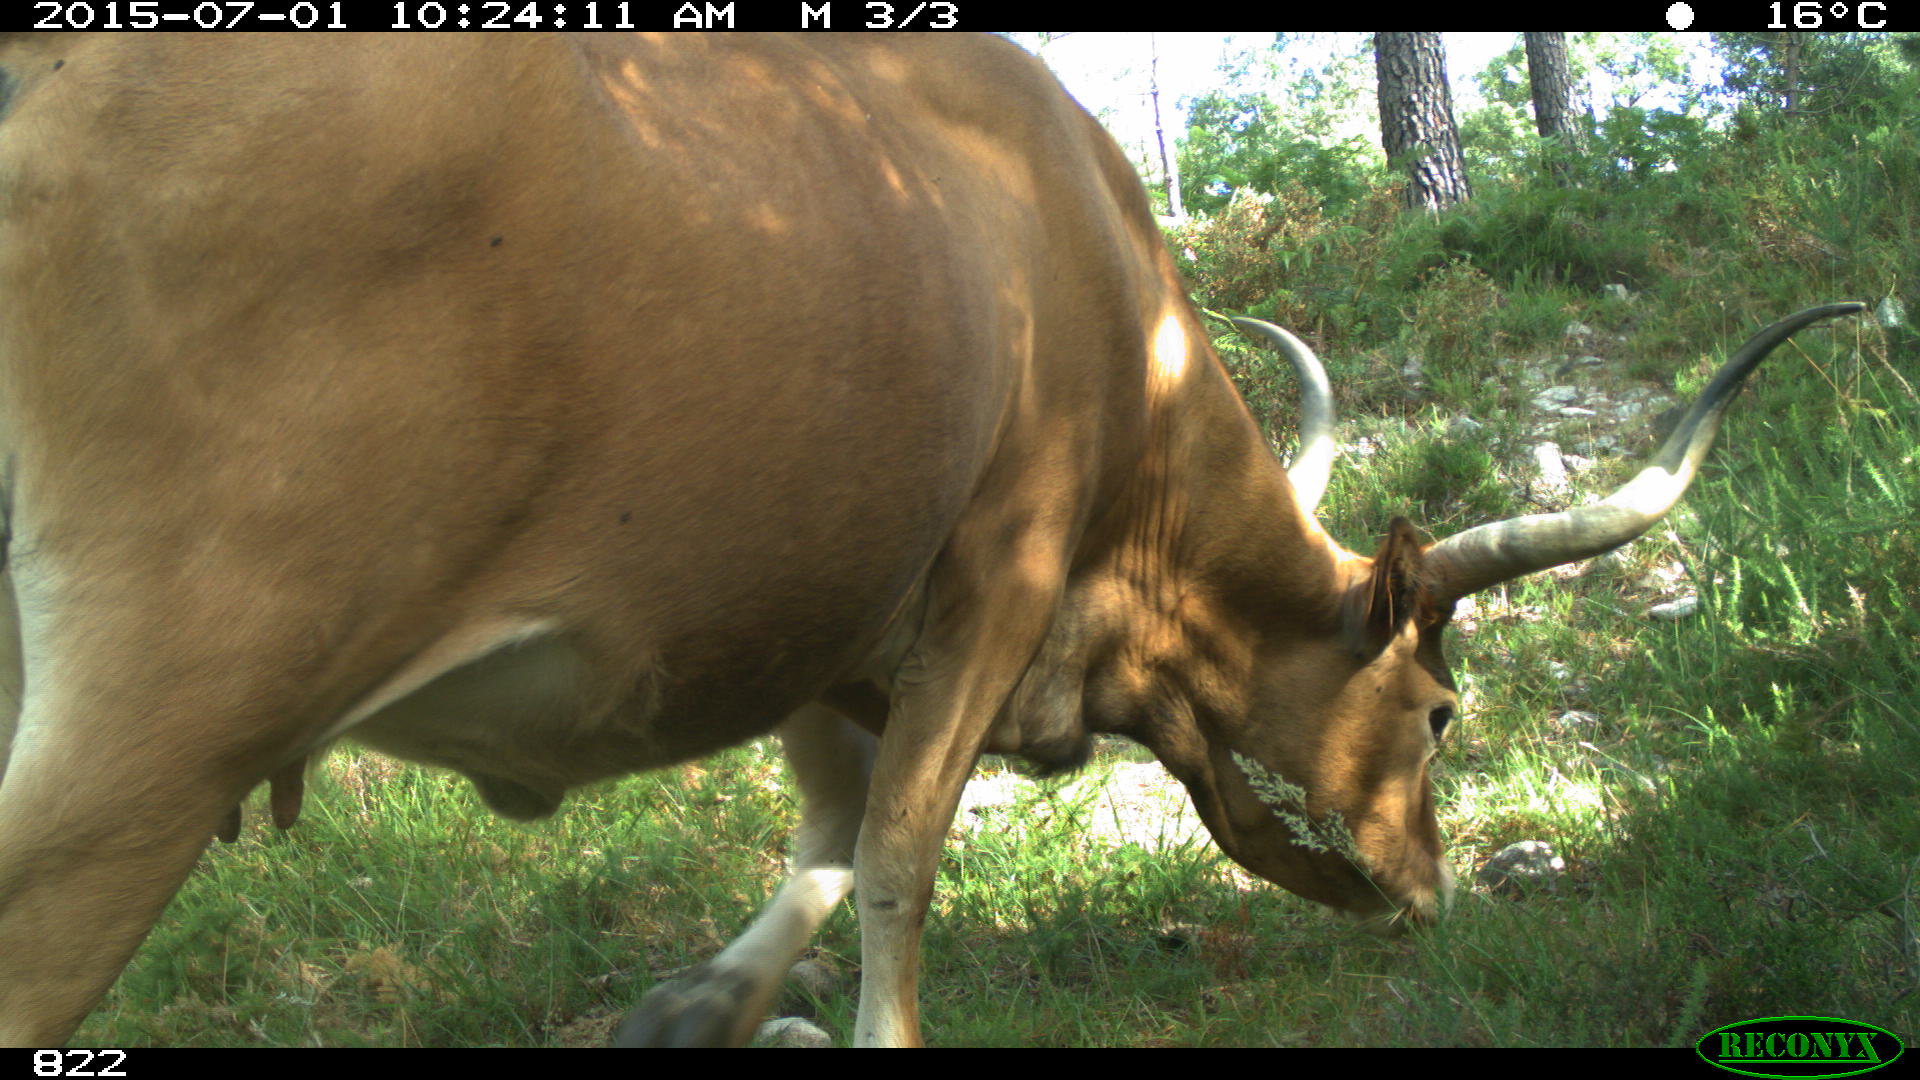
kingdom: Animalia
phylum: Chordata
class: Mammalia
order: Artiodactyla
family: Bovidae
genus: Bos
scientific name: Bos taurus
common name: Domesticated cattle
